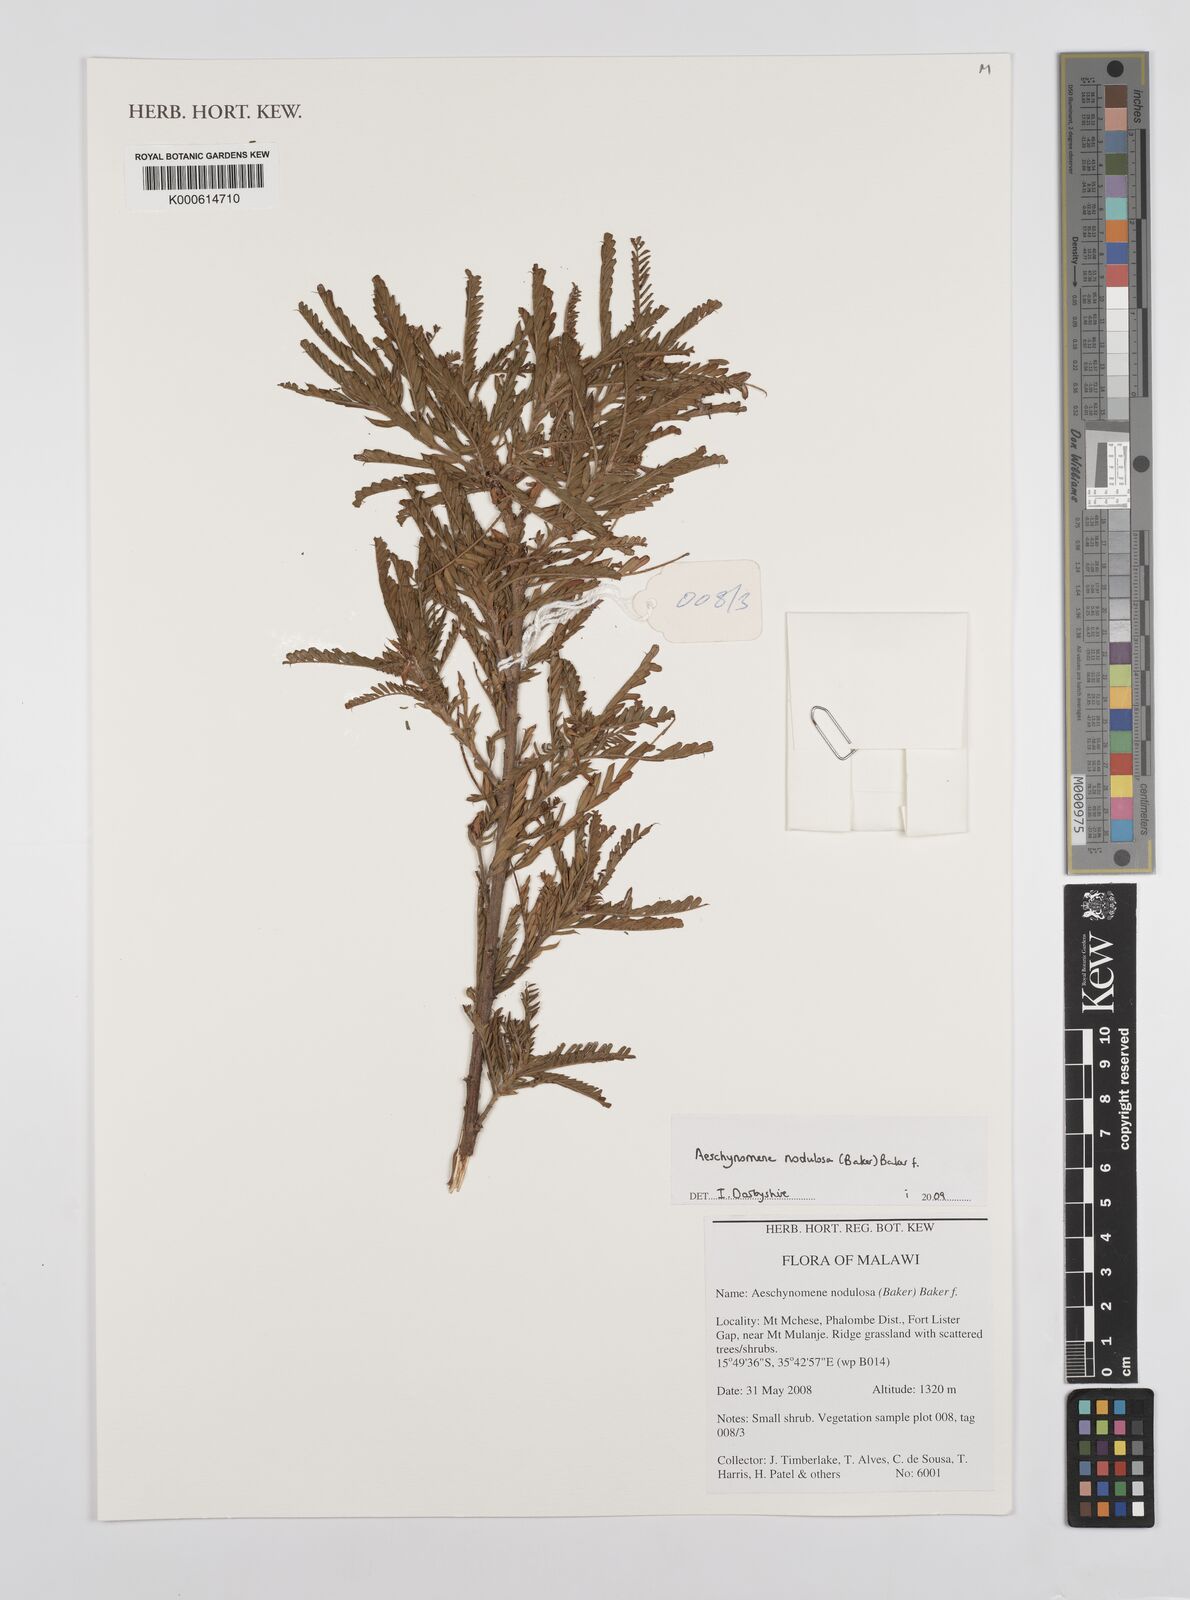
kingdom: Plantae
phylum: Tracheophyta
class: Magnoliopsida
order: Fabales
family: Fabaceae
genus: Aeschynomene
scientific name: Aeschynomene nodulosa
